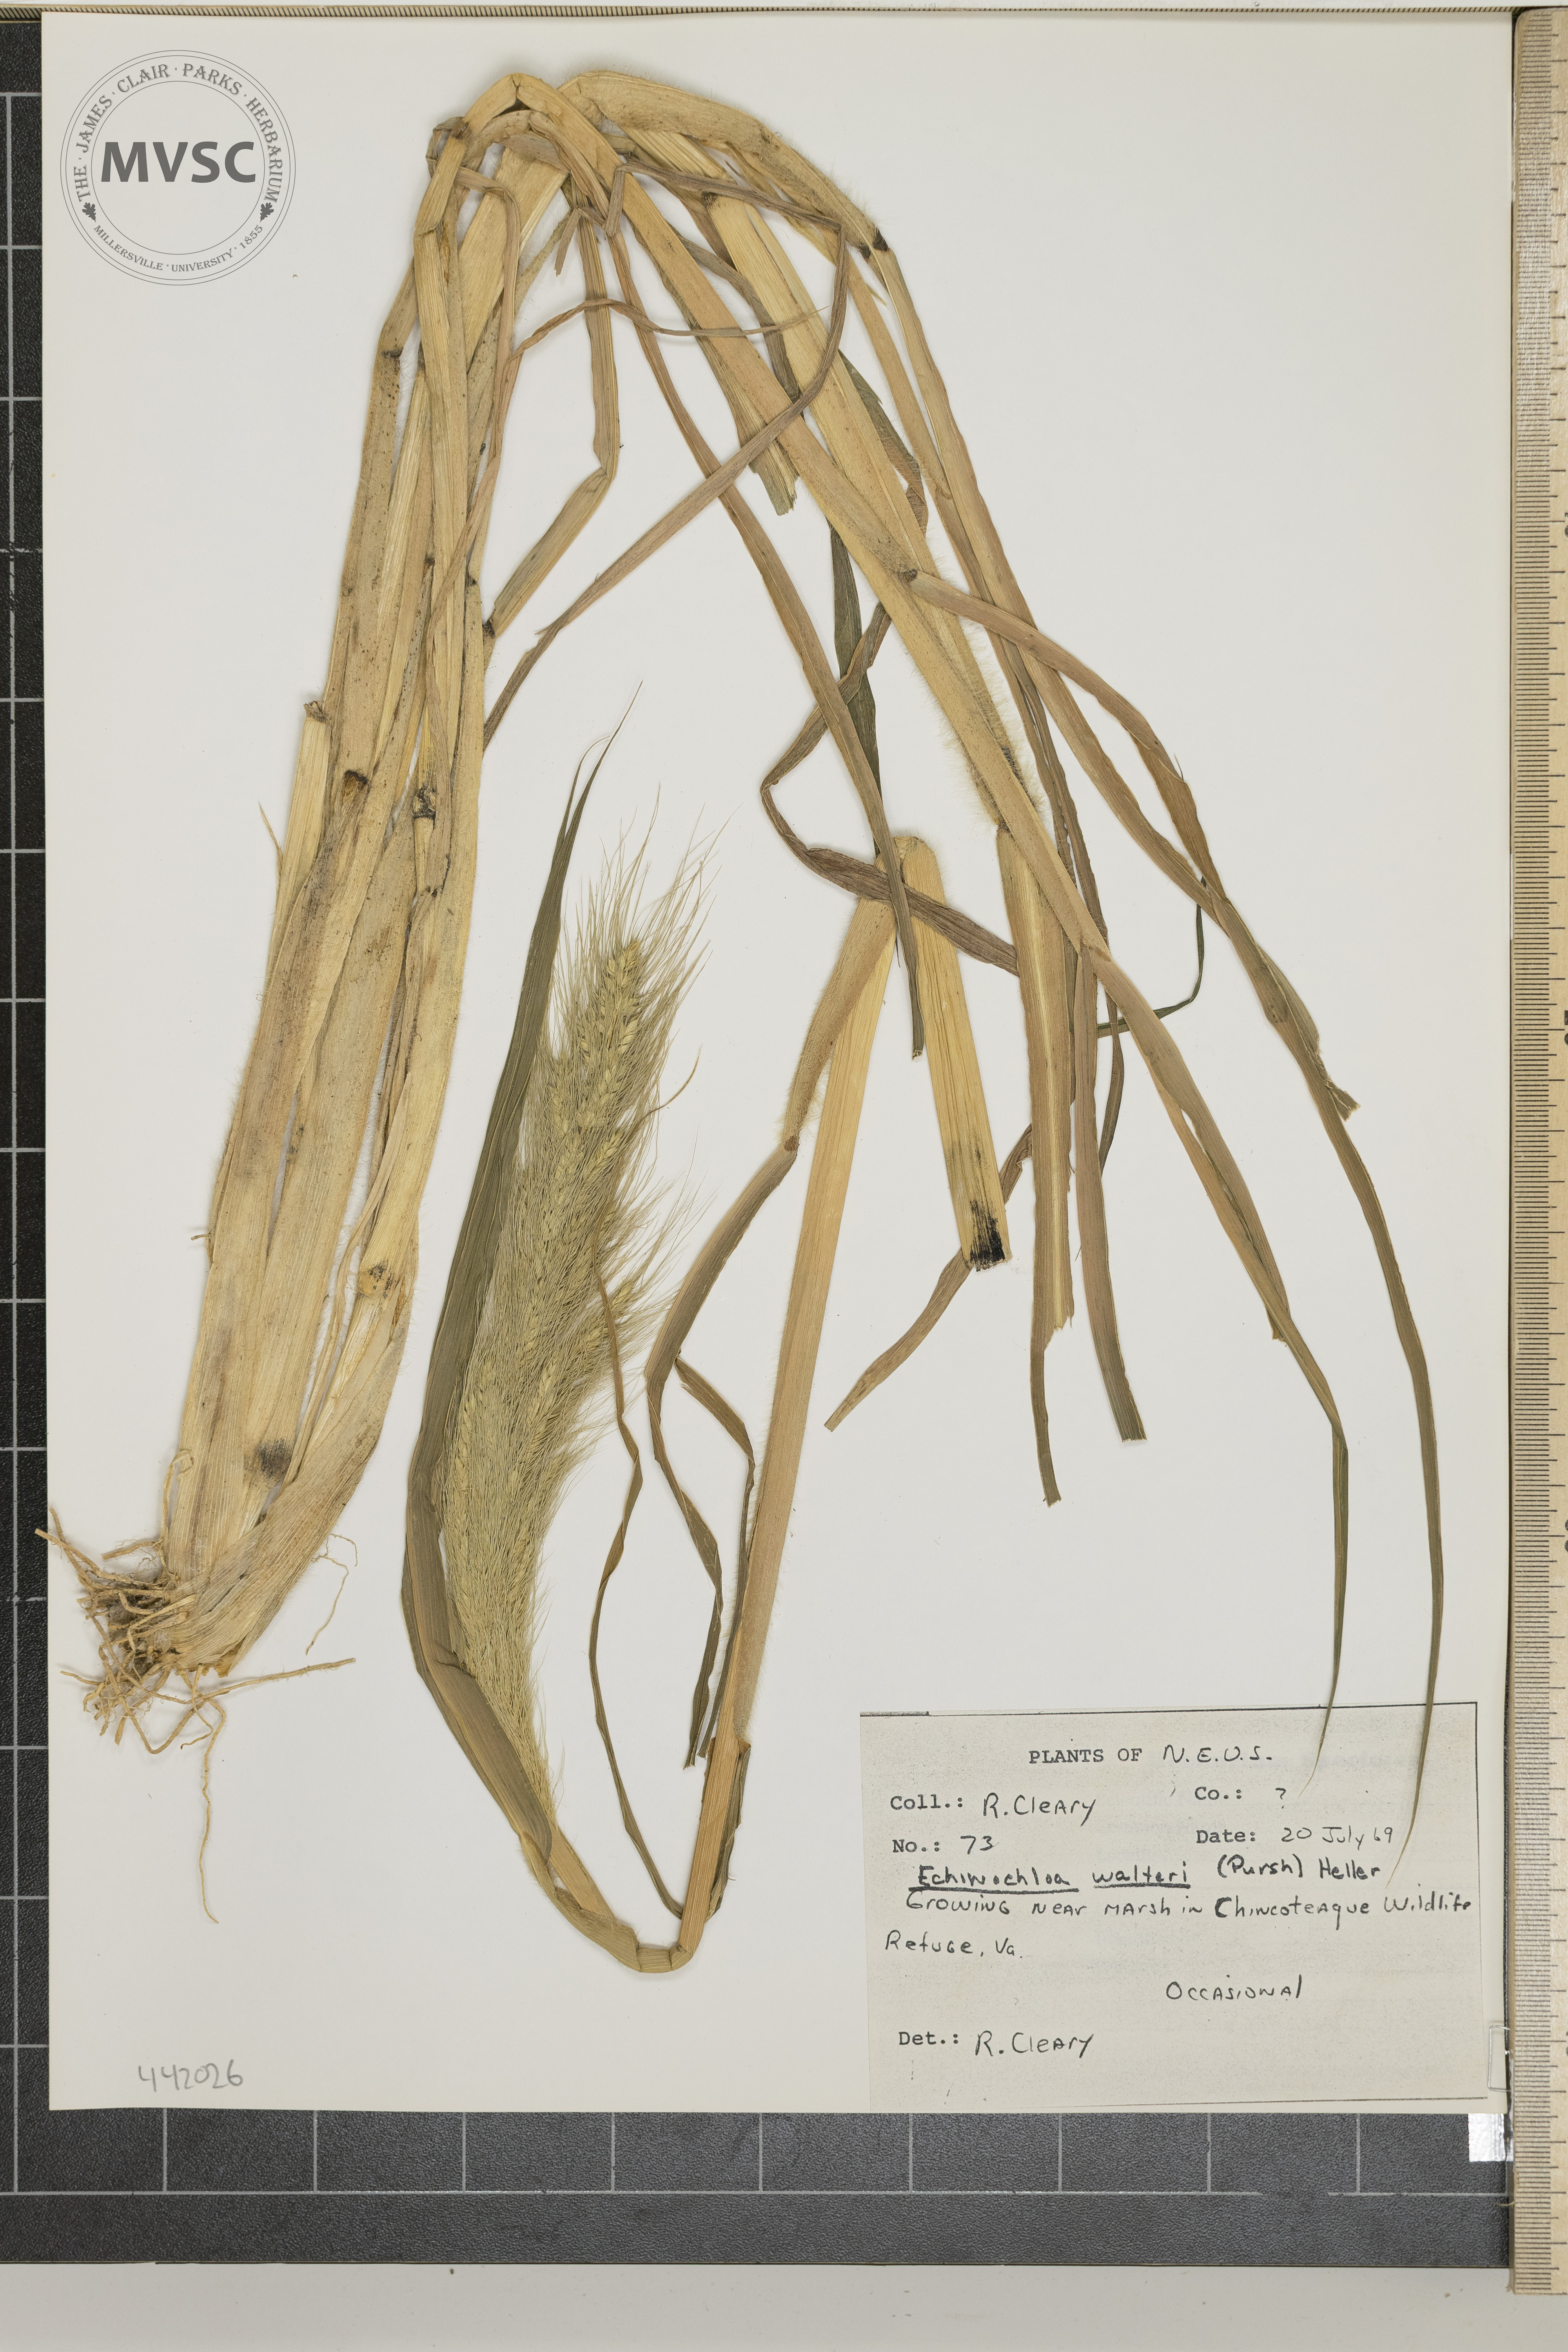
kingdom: Plantae
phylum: Tracheophyta
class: Liliopsida
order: Poales
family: Poaceae
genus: Echinochloa
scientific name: Echinochloa walteri
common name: Coast barnyard grass
